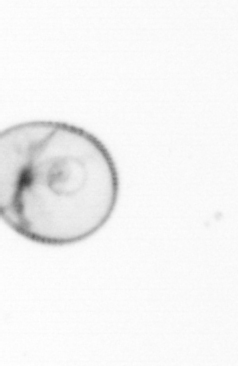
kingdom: Chromista
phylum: Myzozoa
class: Dinophyceae
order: Noctilucales
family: Noctilucaceae
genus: Noctiluca
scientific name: Noctiluca scintillans
